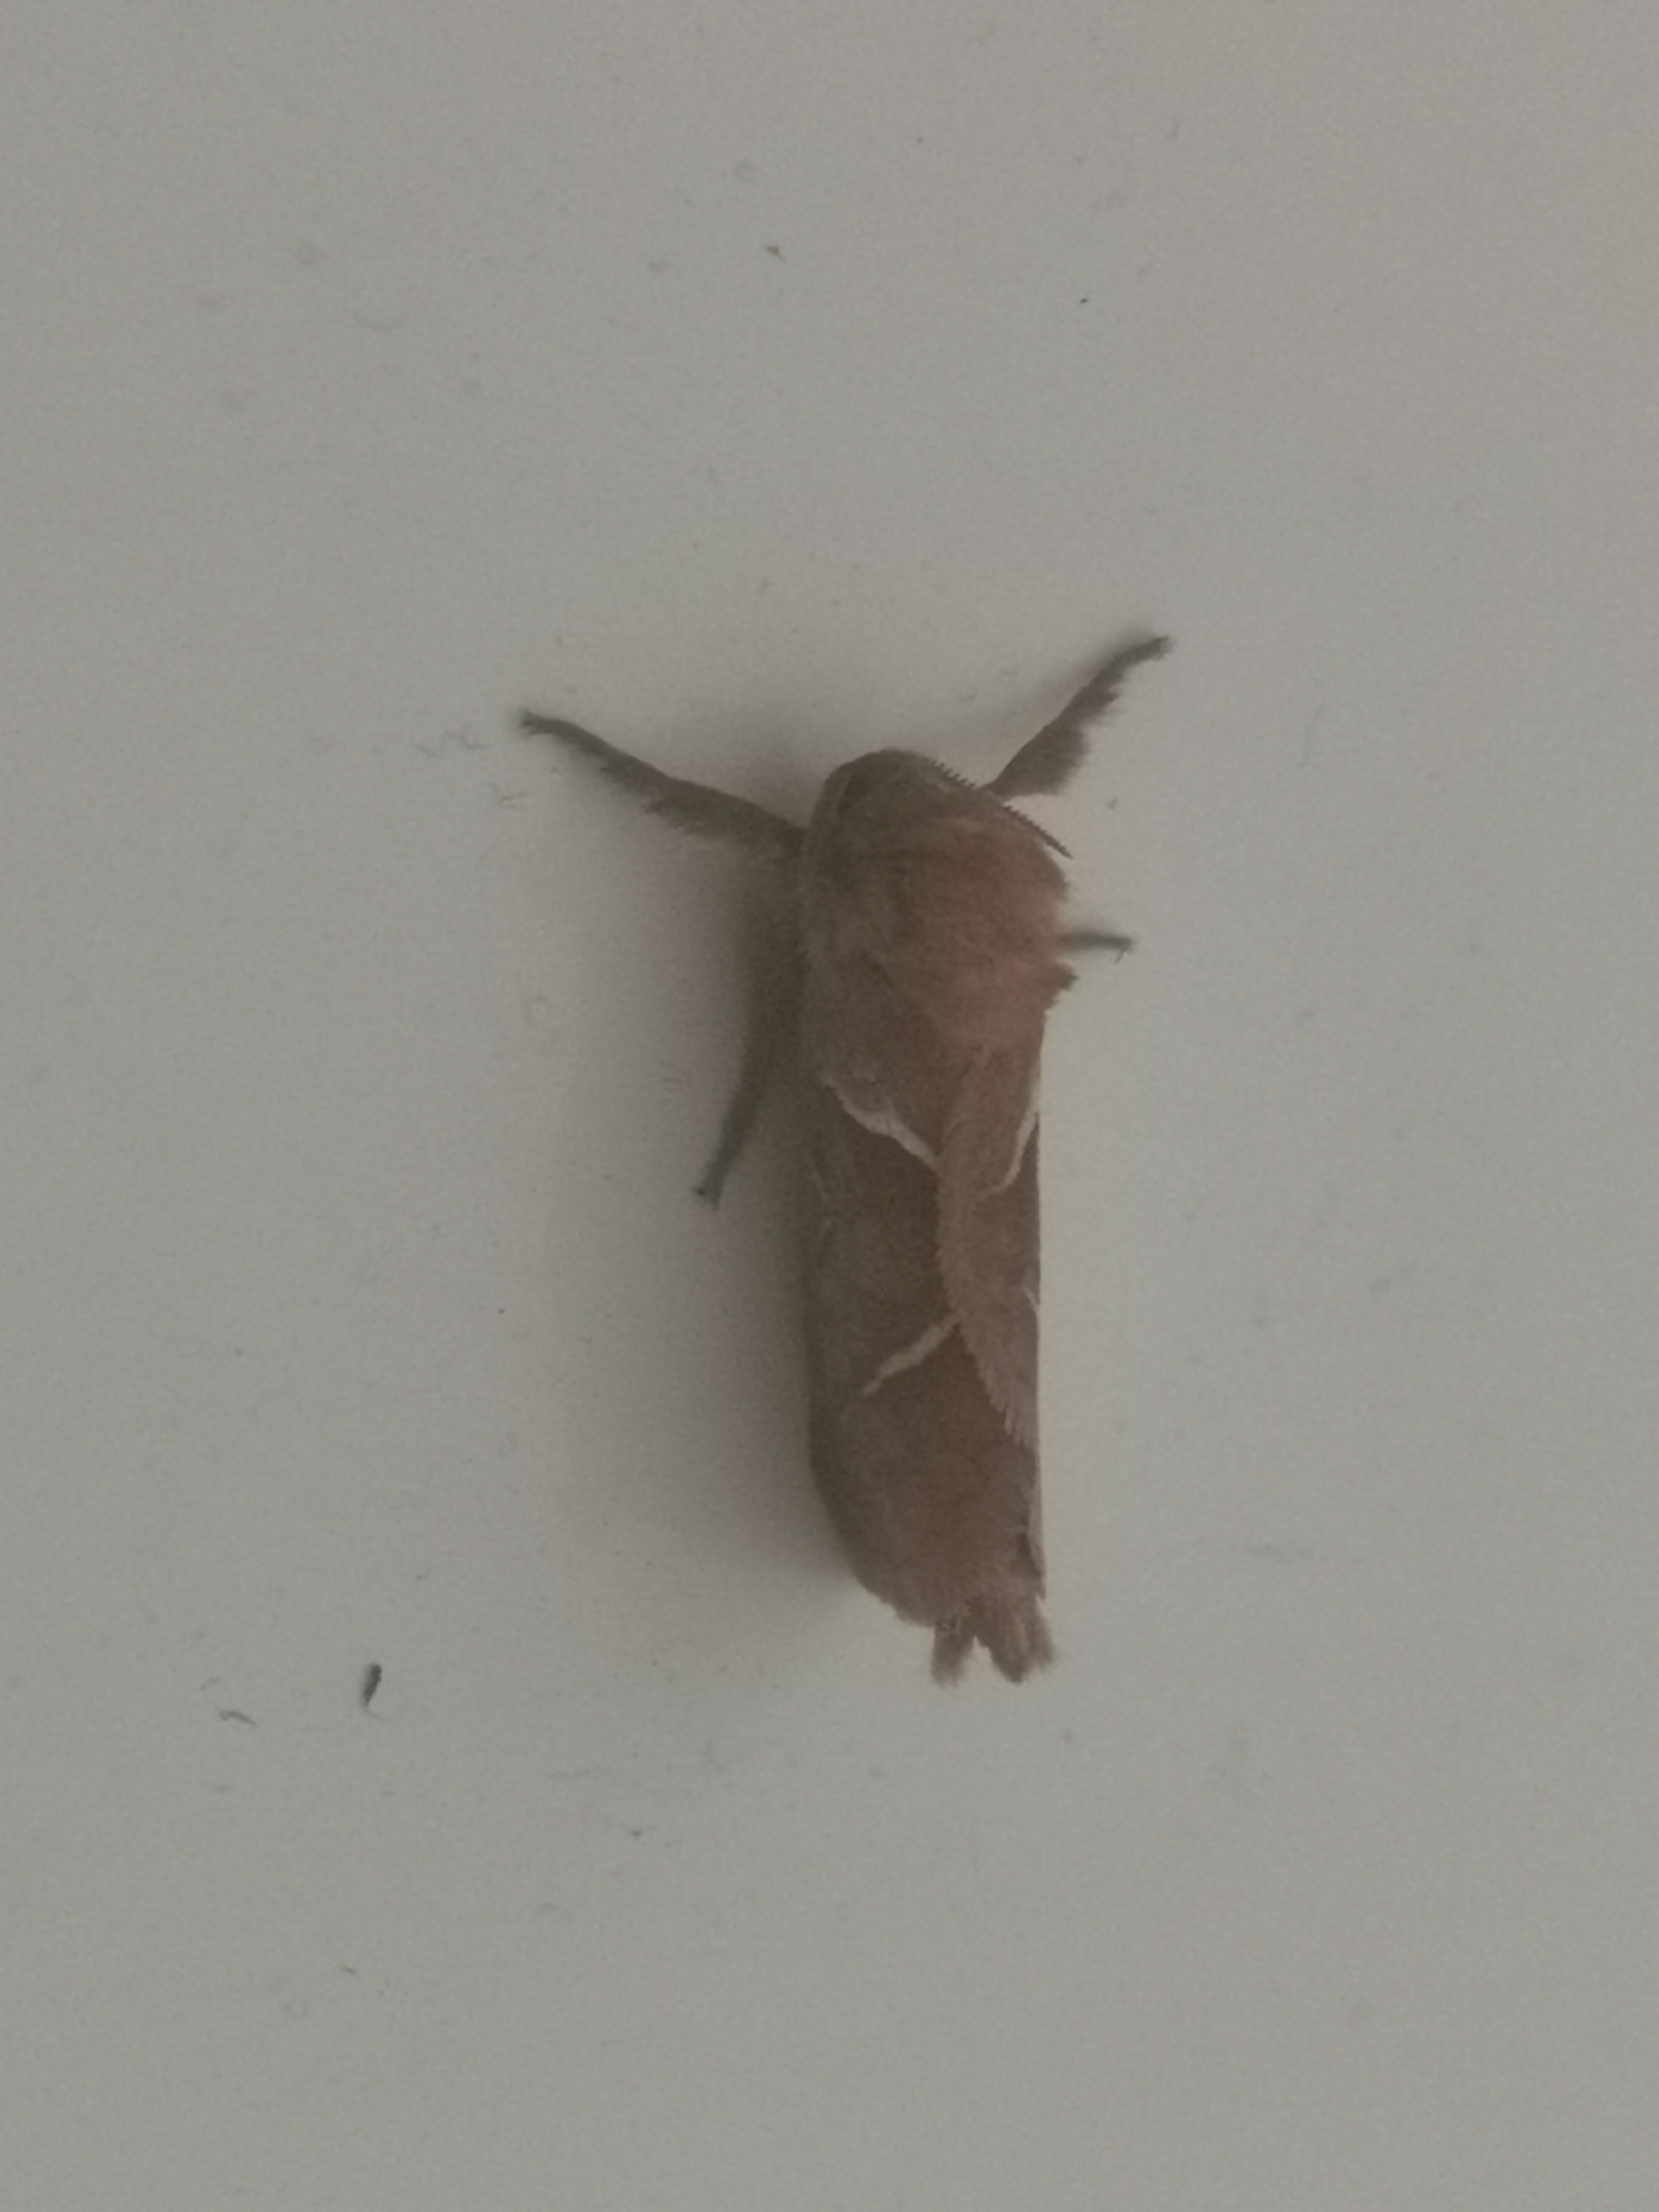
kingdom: Animalia
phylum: Arthropoda
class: Insecta
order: Lepidoptera
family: Hepialidae
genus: Triodia
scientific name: Triodia sylvina
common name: Skræpperodæder
